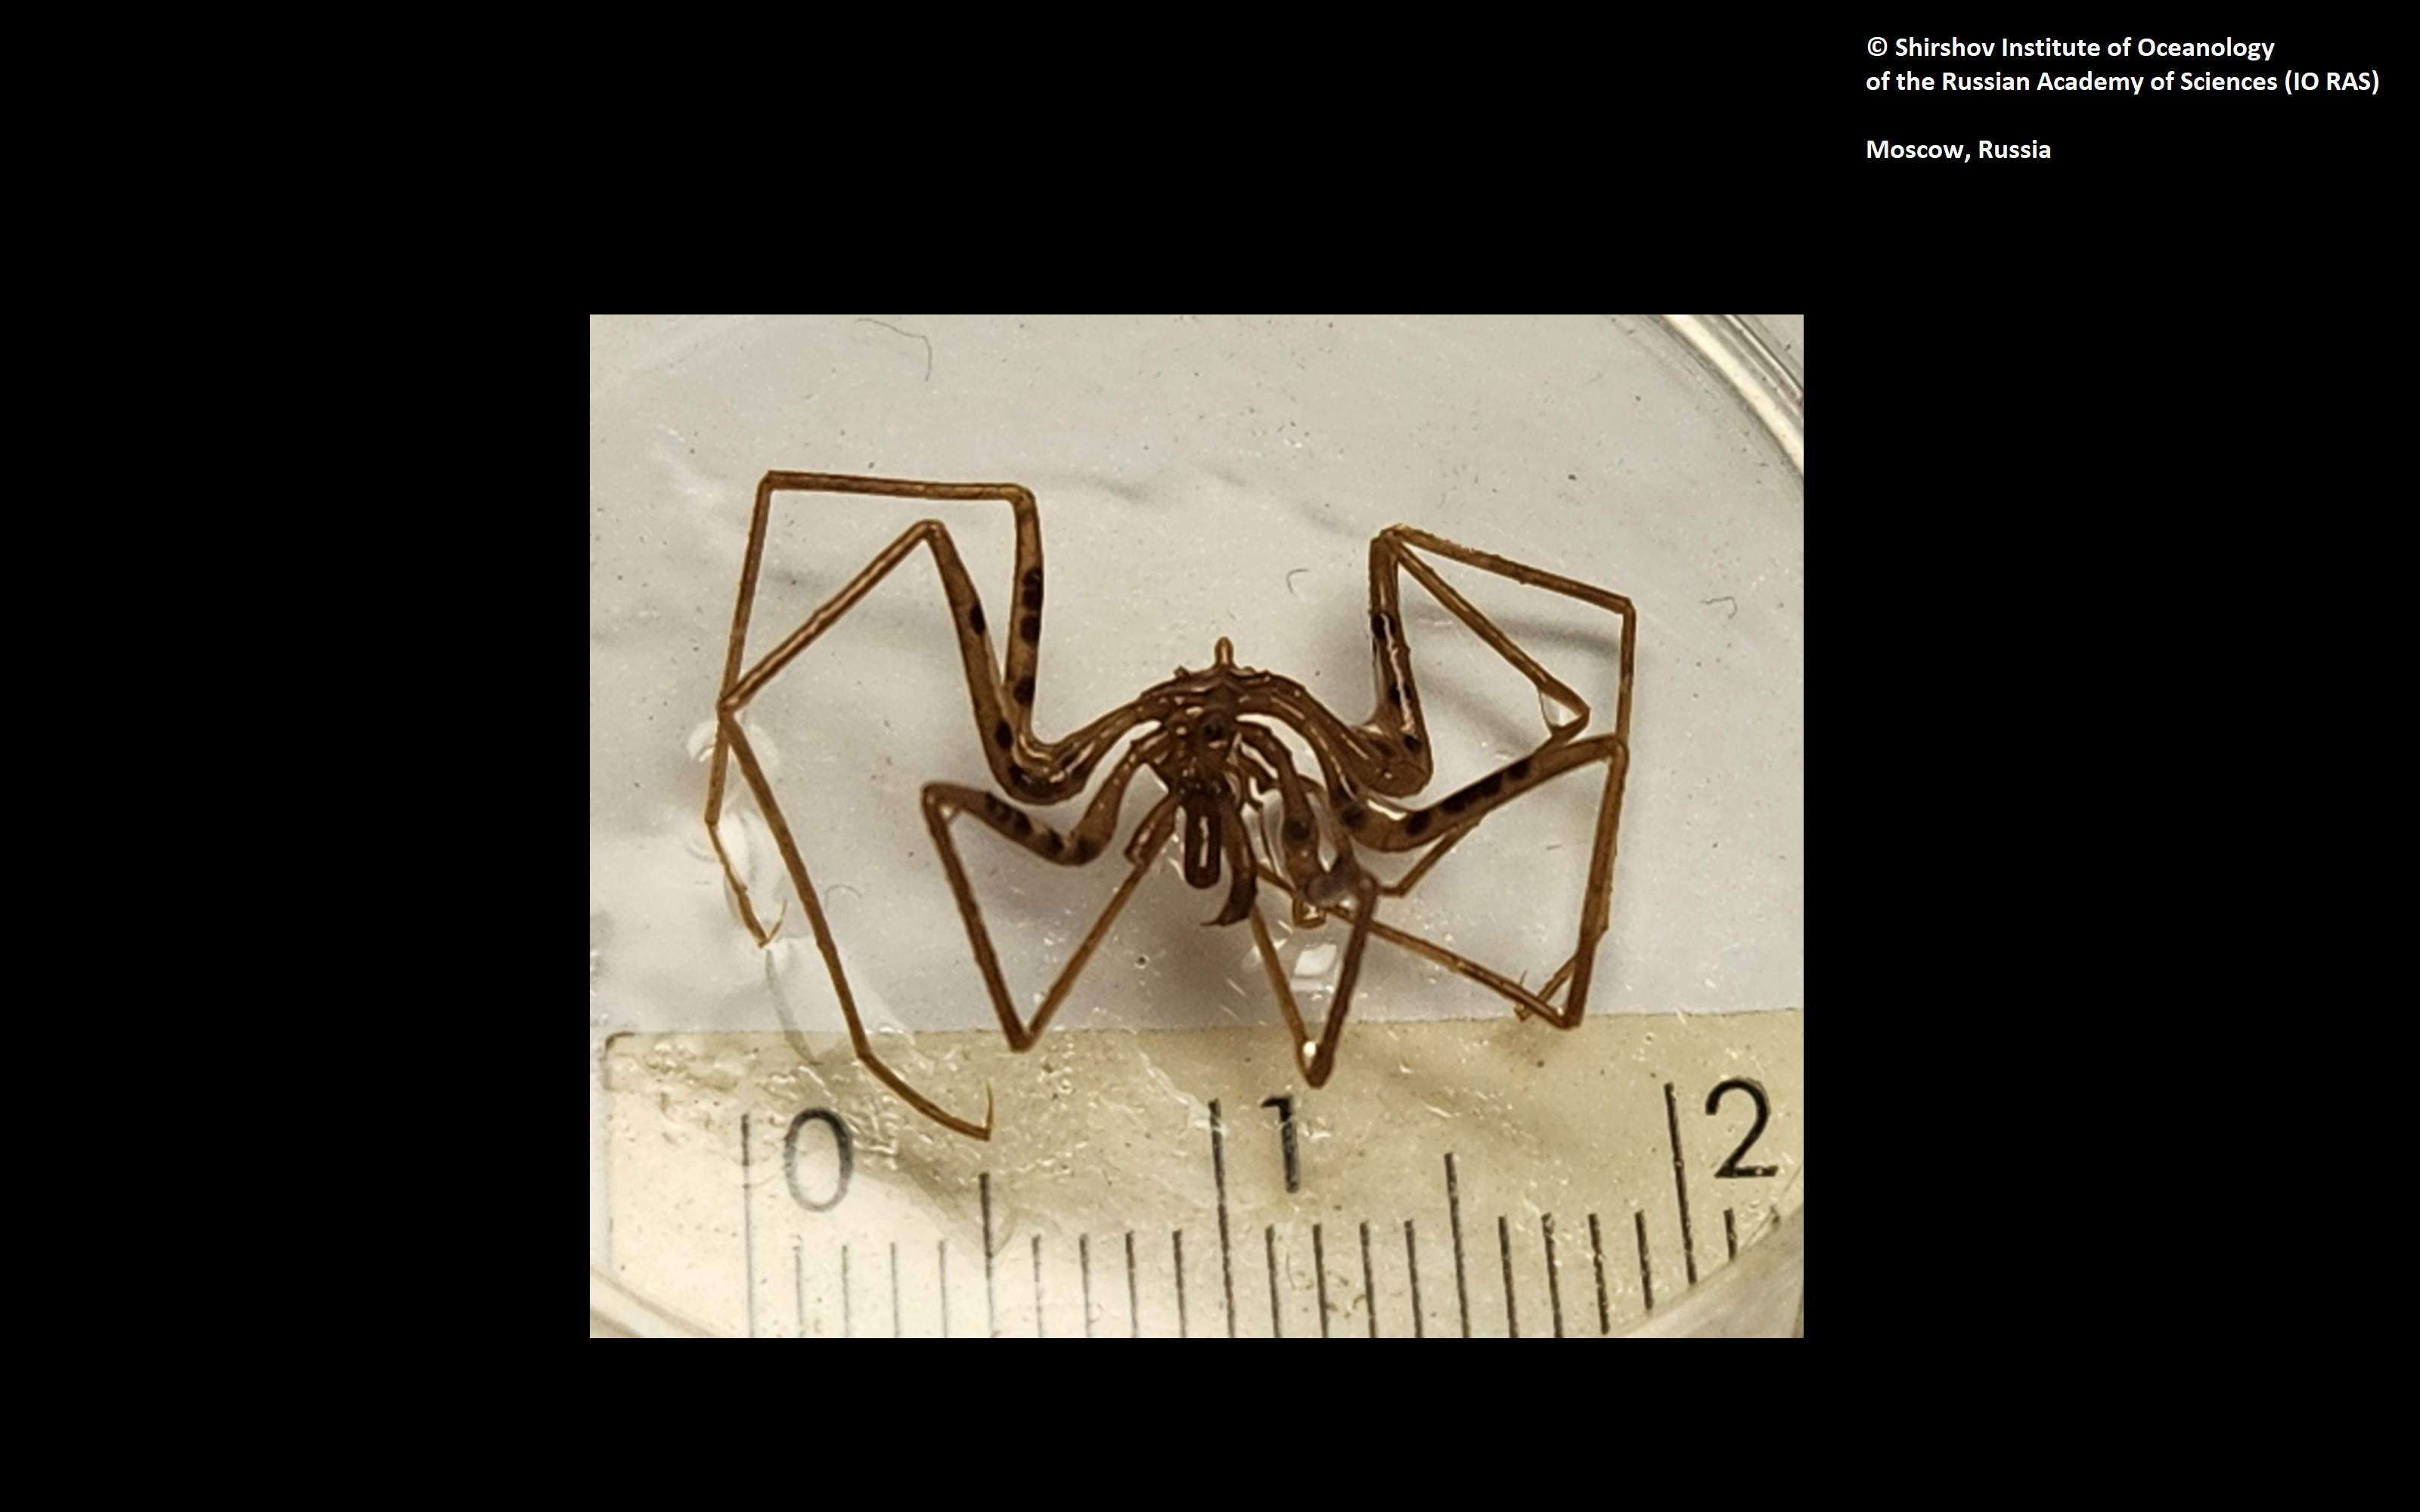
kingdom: Animalia
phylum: Arthropoda
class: Pycnogonida
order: Pantopoda
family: Nymphonidae
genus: Nymphon
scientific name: Nymphon grossipes
